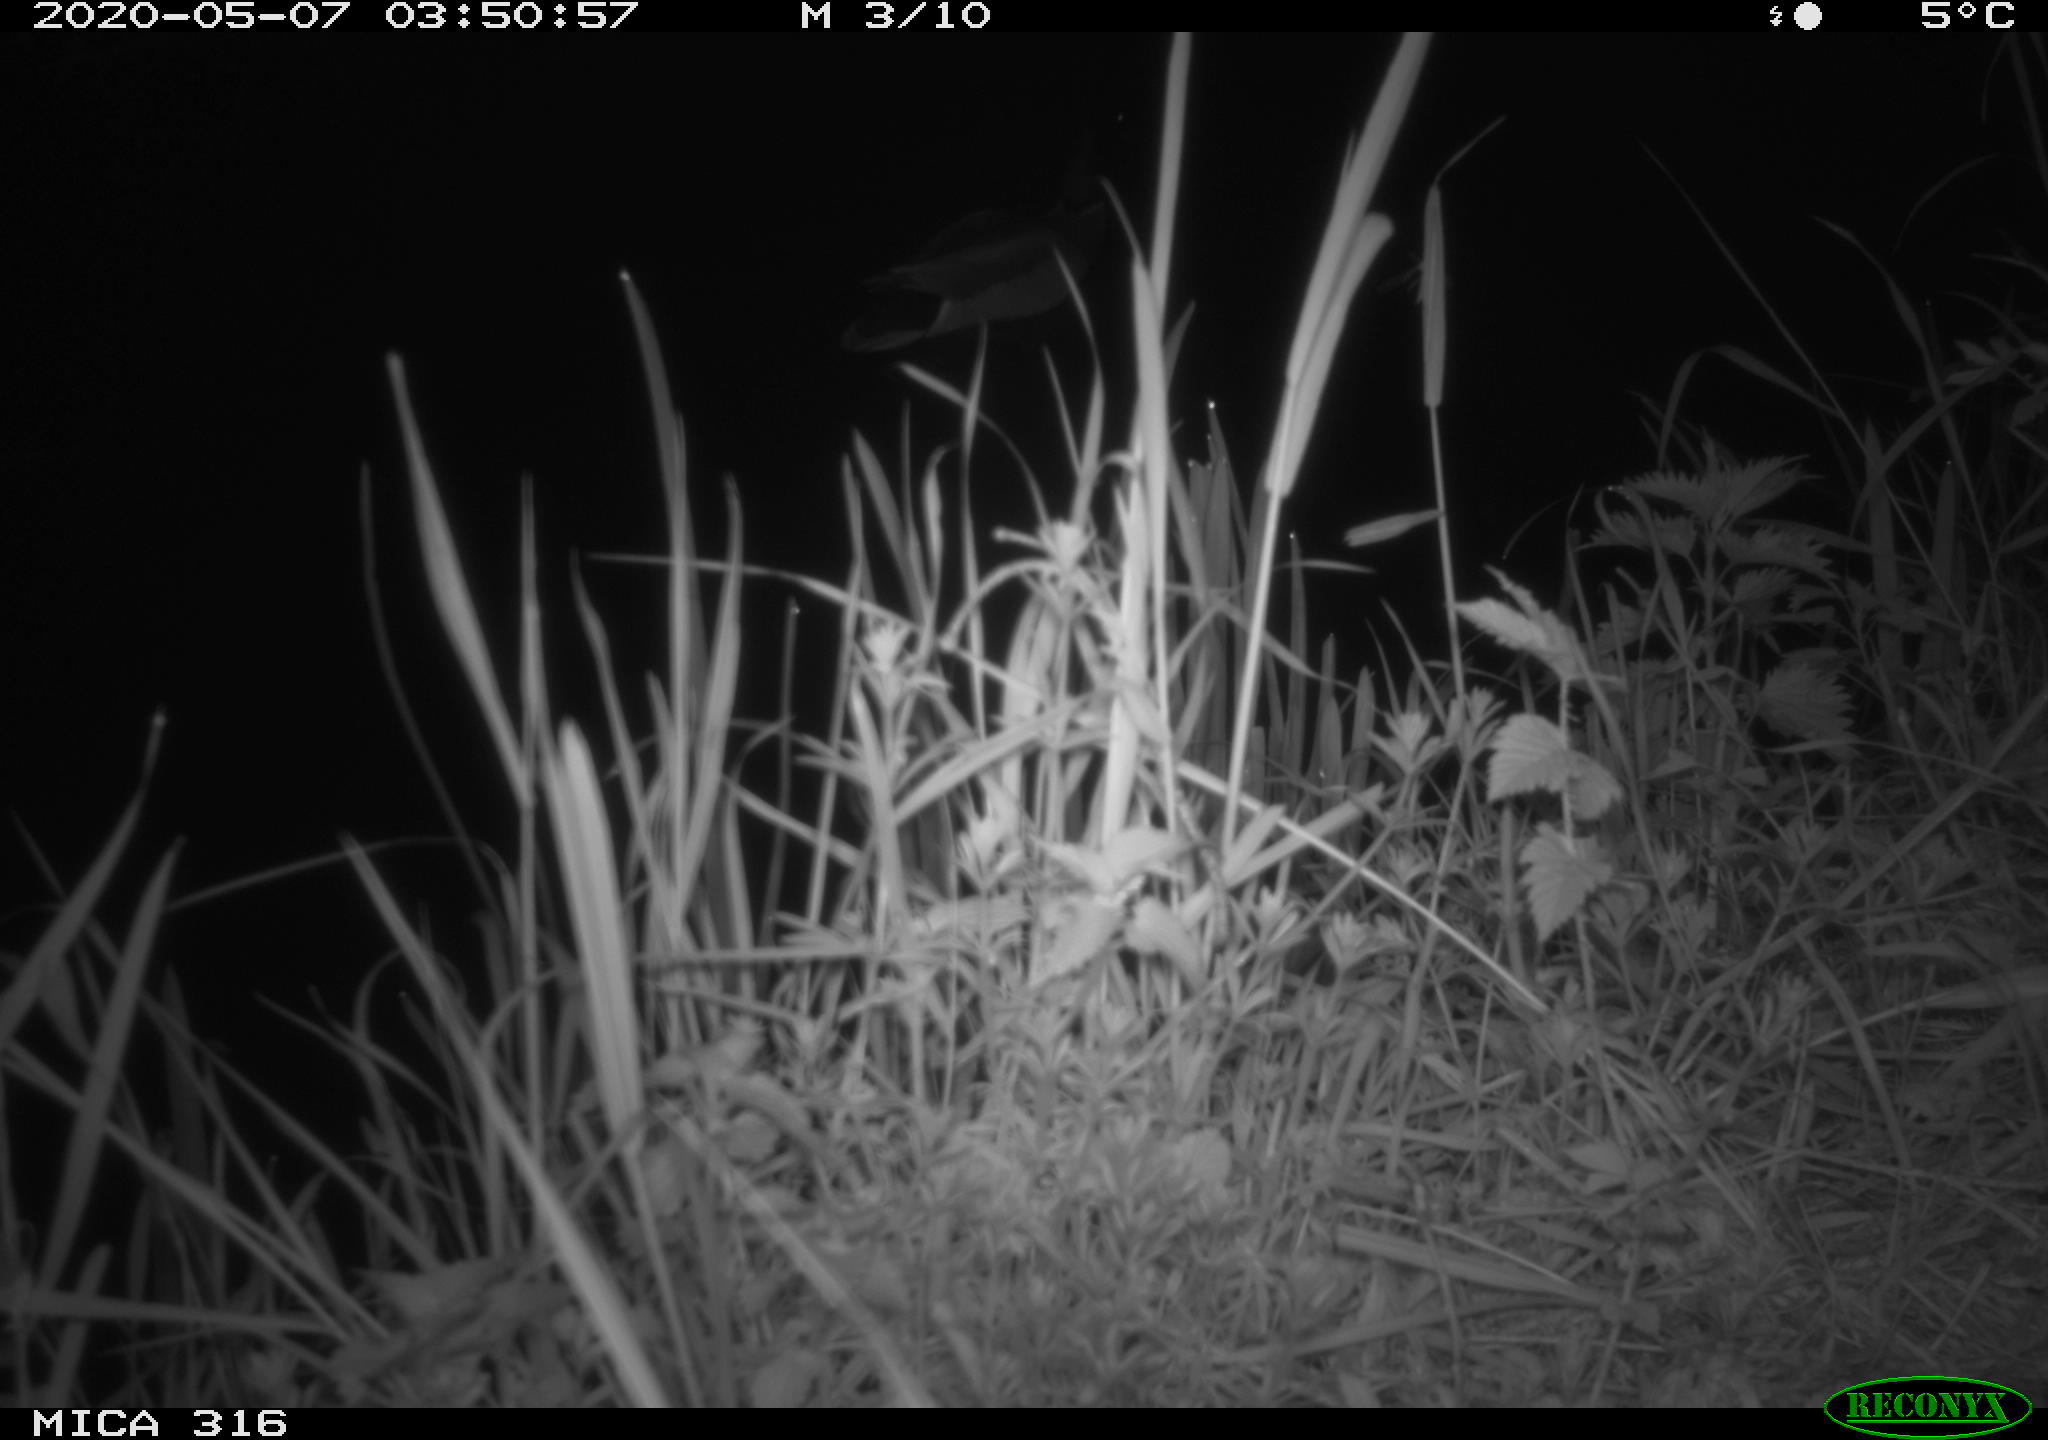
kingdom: Animalia
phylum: Chordata
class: Aves
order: Anseriformes
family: Anatidae
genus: Anas
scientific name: Anas platyrhynchos
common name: Mallard
